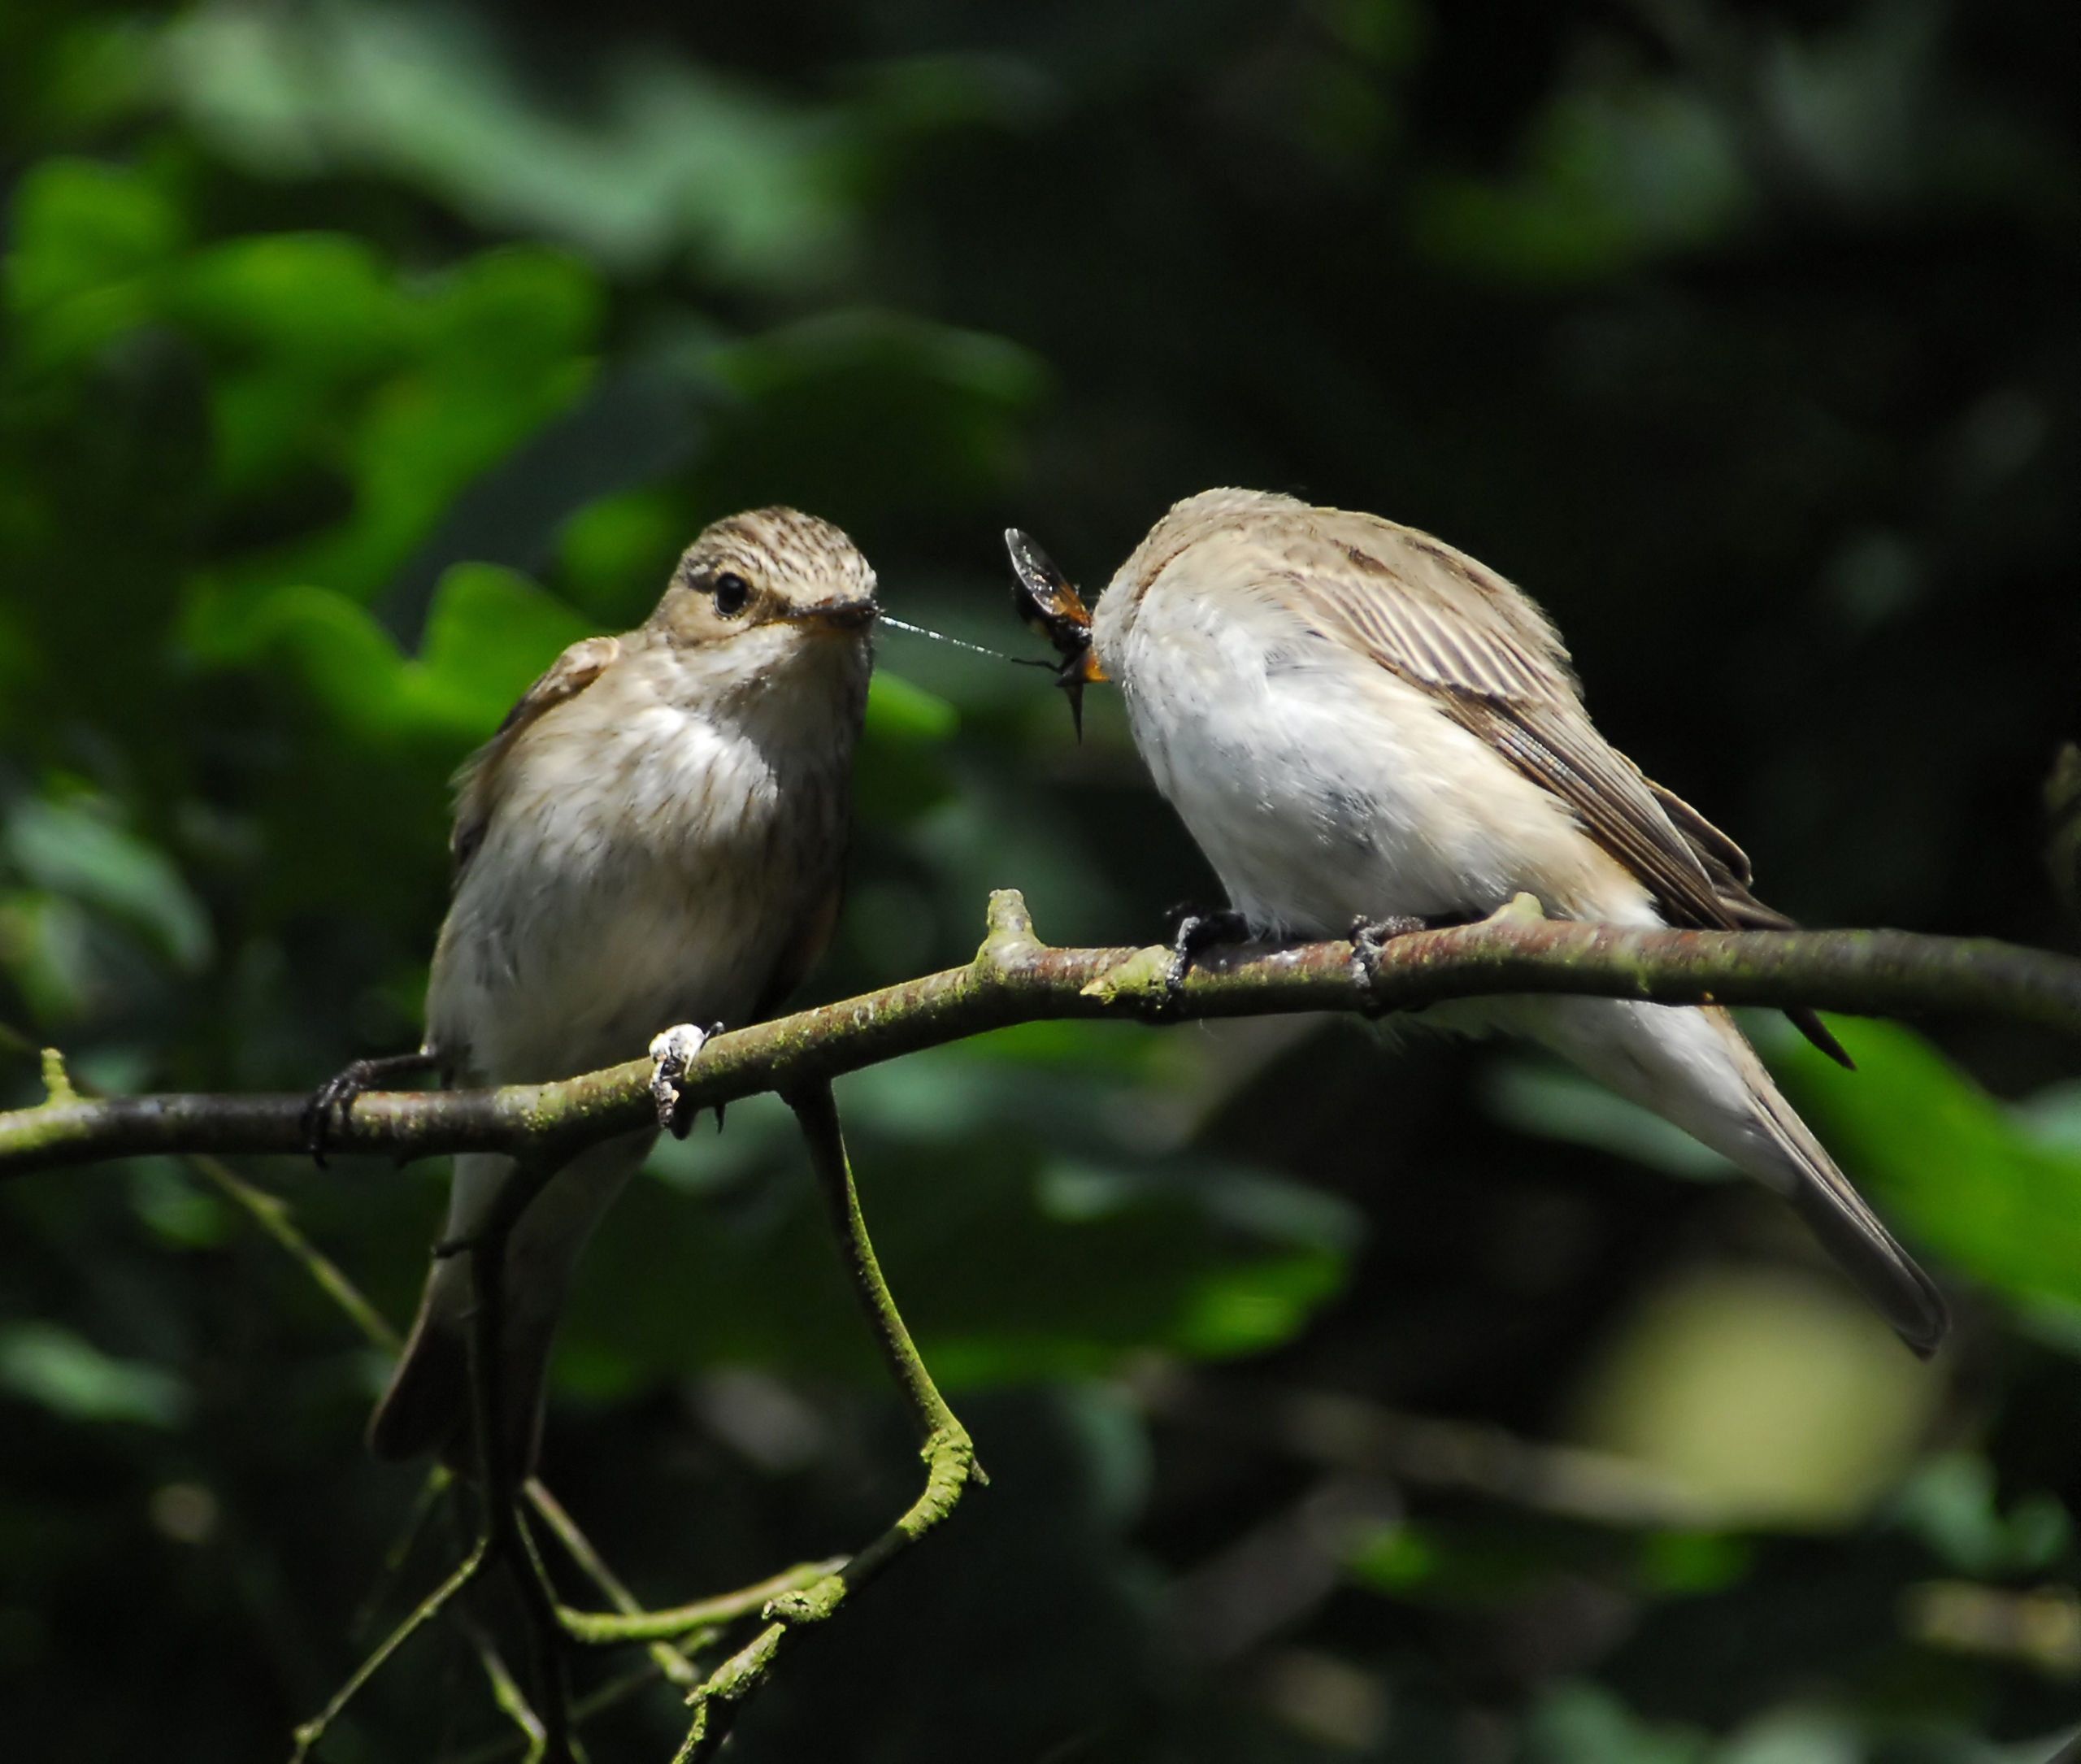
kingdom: Animalia
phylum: Chordata
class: Aves
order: Passeriformes
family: Muscicapidae
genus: Muscicapa
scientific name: Muscicapa striata
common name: Grå fluesnapper
